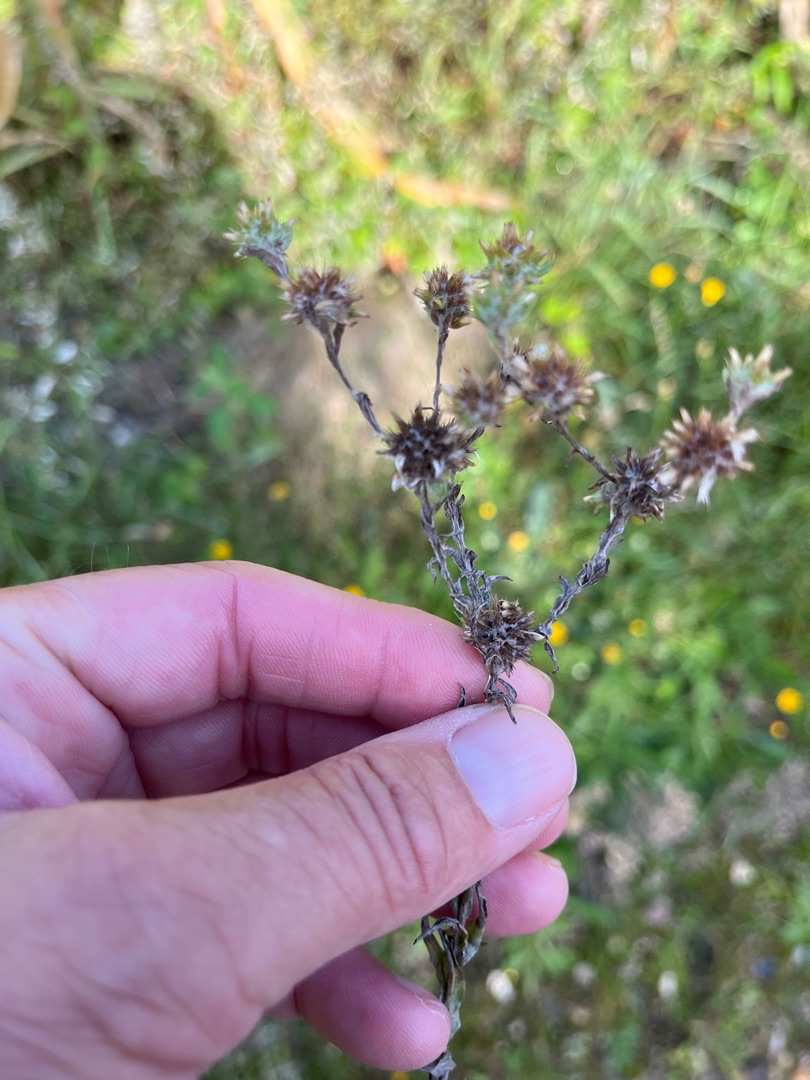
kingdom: Plantae
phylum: Tracheophyta
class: Magnoliopsida
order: Asterales
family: Asteraceae
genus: Filago
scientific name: Filago germanica
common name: Kugle-museurt
